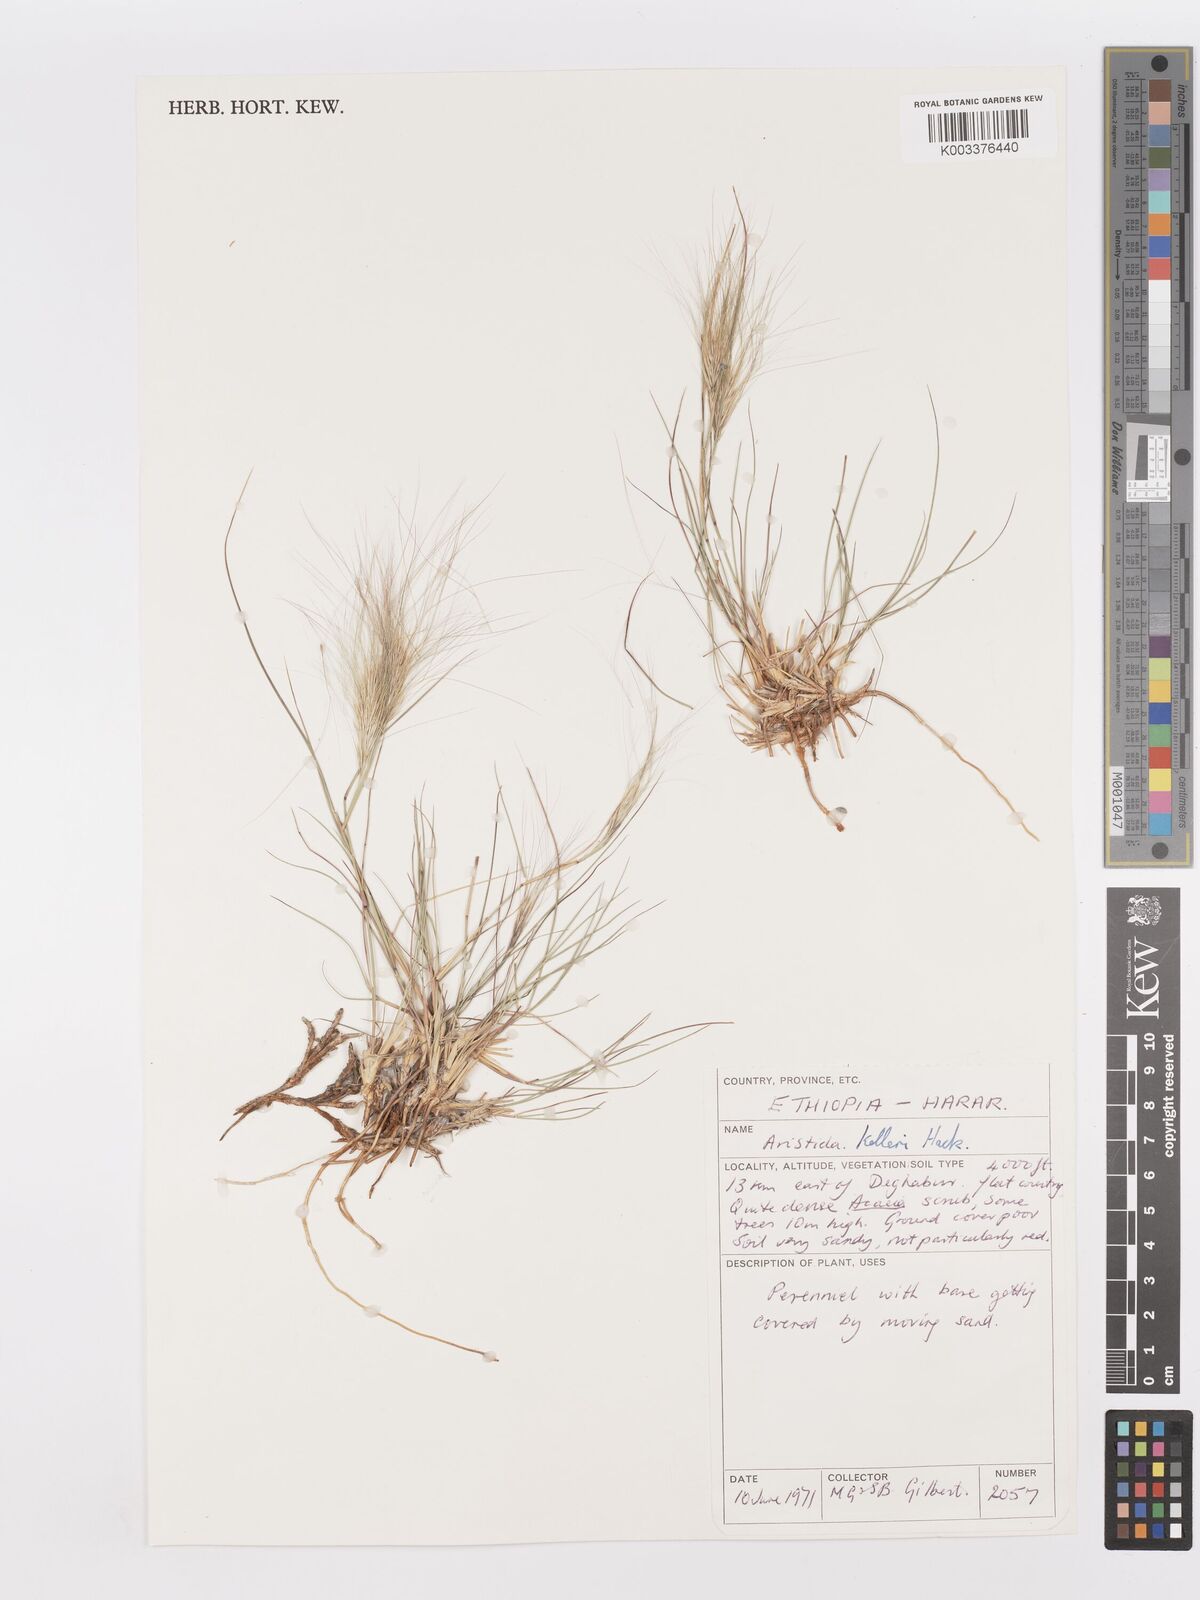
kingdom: Plantae
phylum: Tracheophyta
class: Liliopsida
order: Poales
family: Poaceae
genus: Aristida
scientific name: Aristida kelleri
